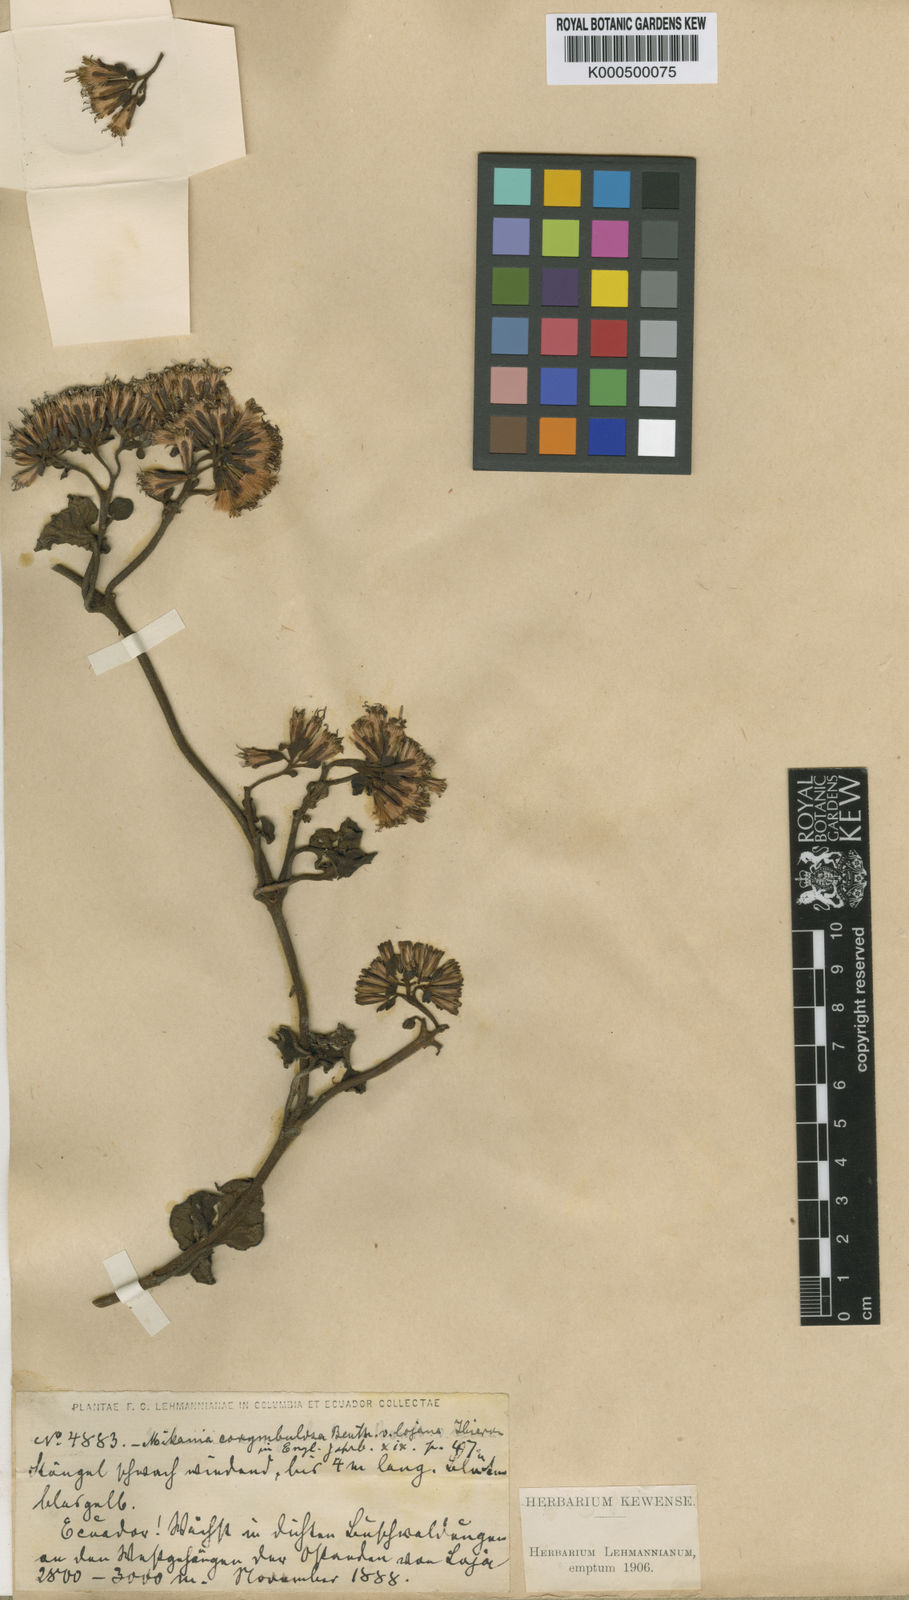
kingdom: Plantae
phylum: Tracheophyta
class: Magnoliopsida
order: Asterales
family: Asteraceae
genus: Mikania
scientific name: Mikania corymbulosa
